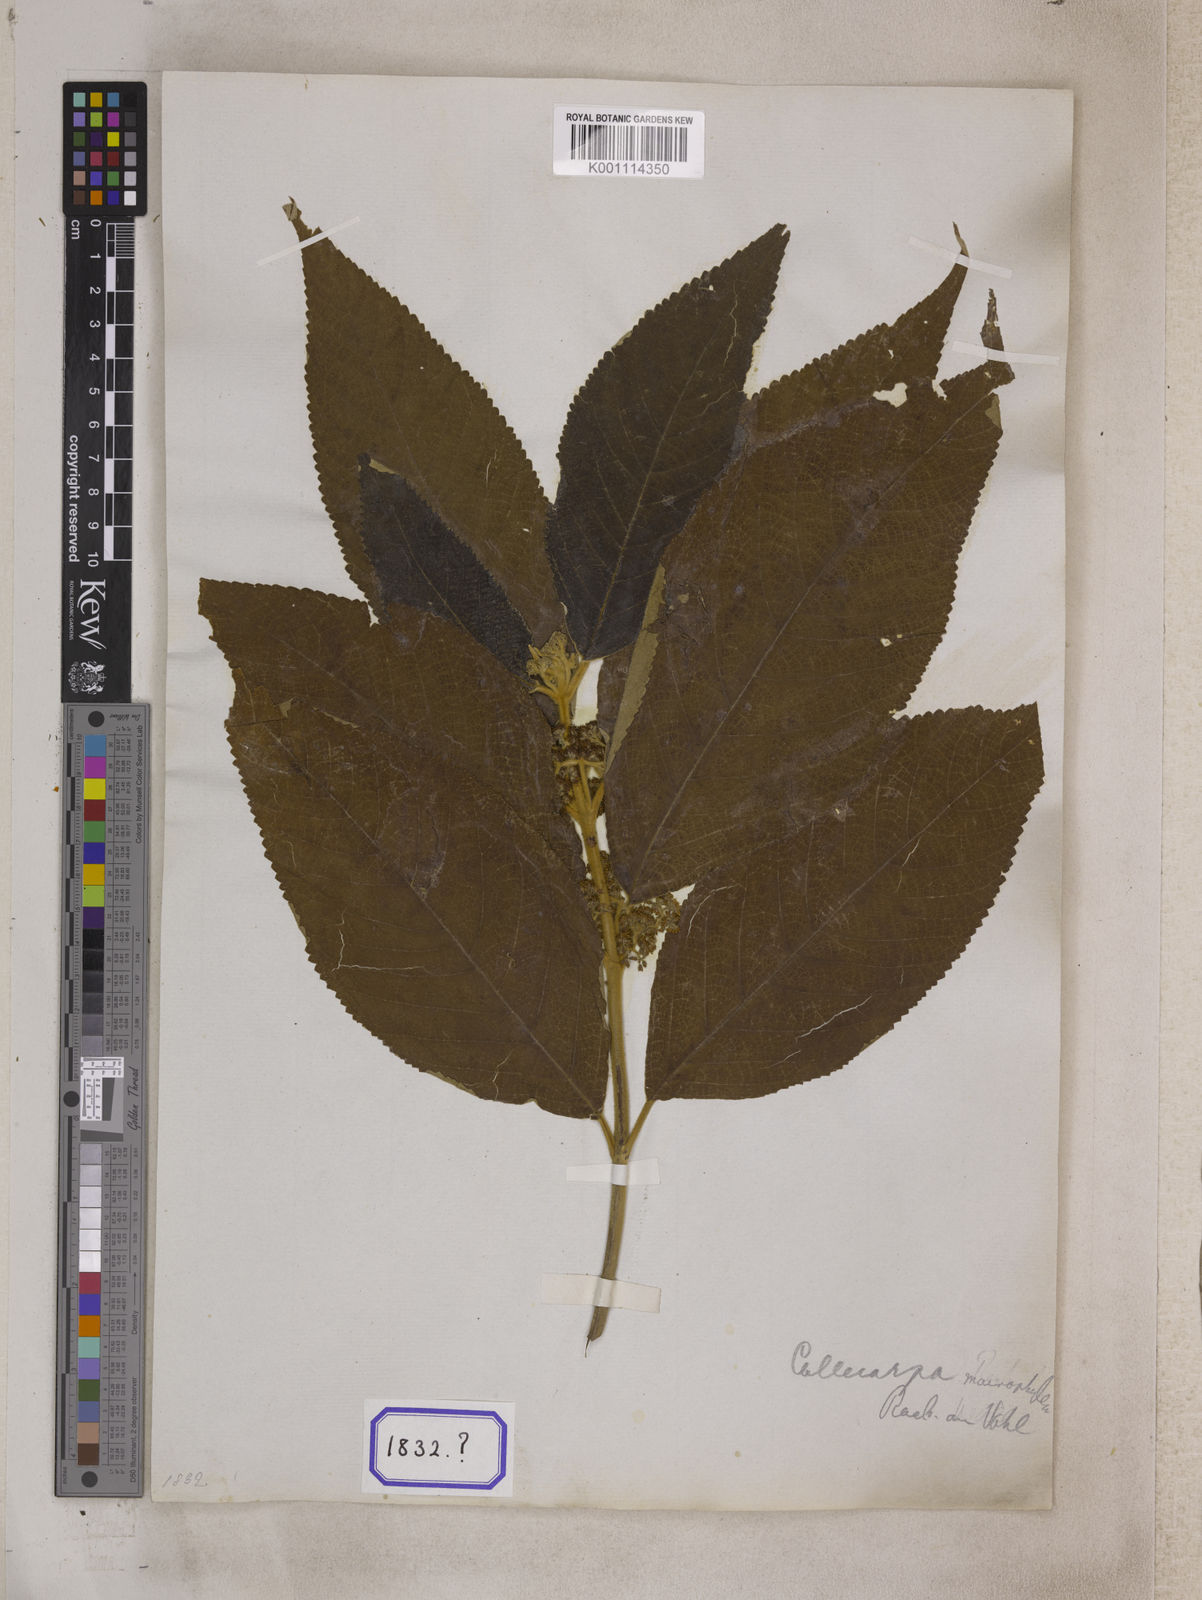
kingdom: Plantae
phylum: Tracheophyta
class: Magnoliopsida
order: Lamiales
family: Lamiaceae
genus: Callicarpa
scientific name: Callicarpa macrophylla
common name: Urn-fruit beauty-berry
